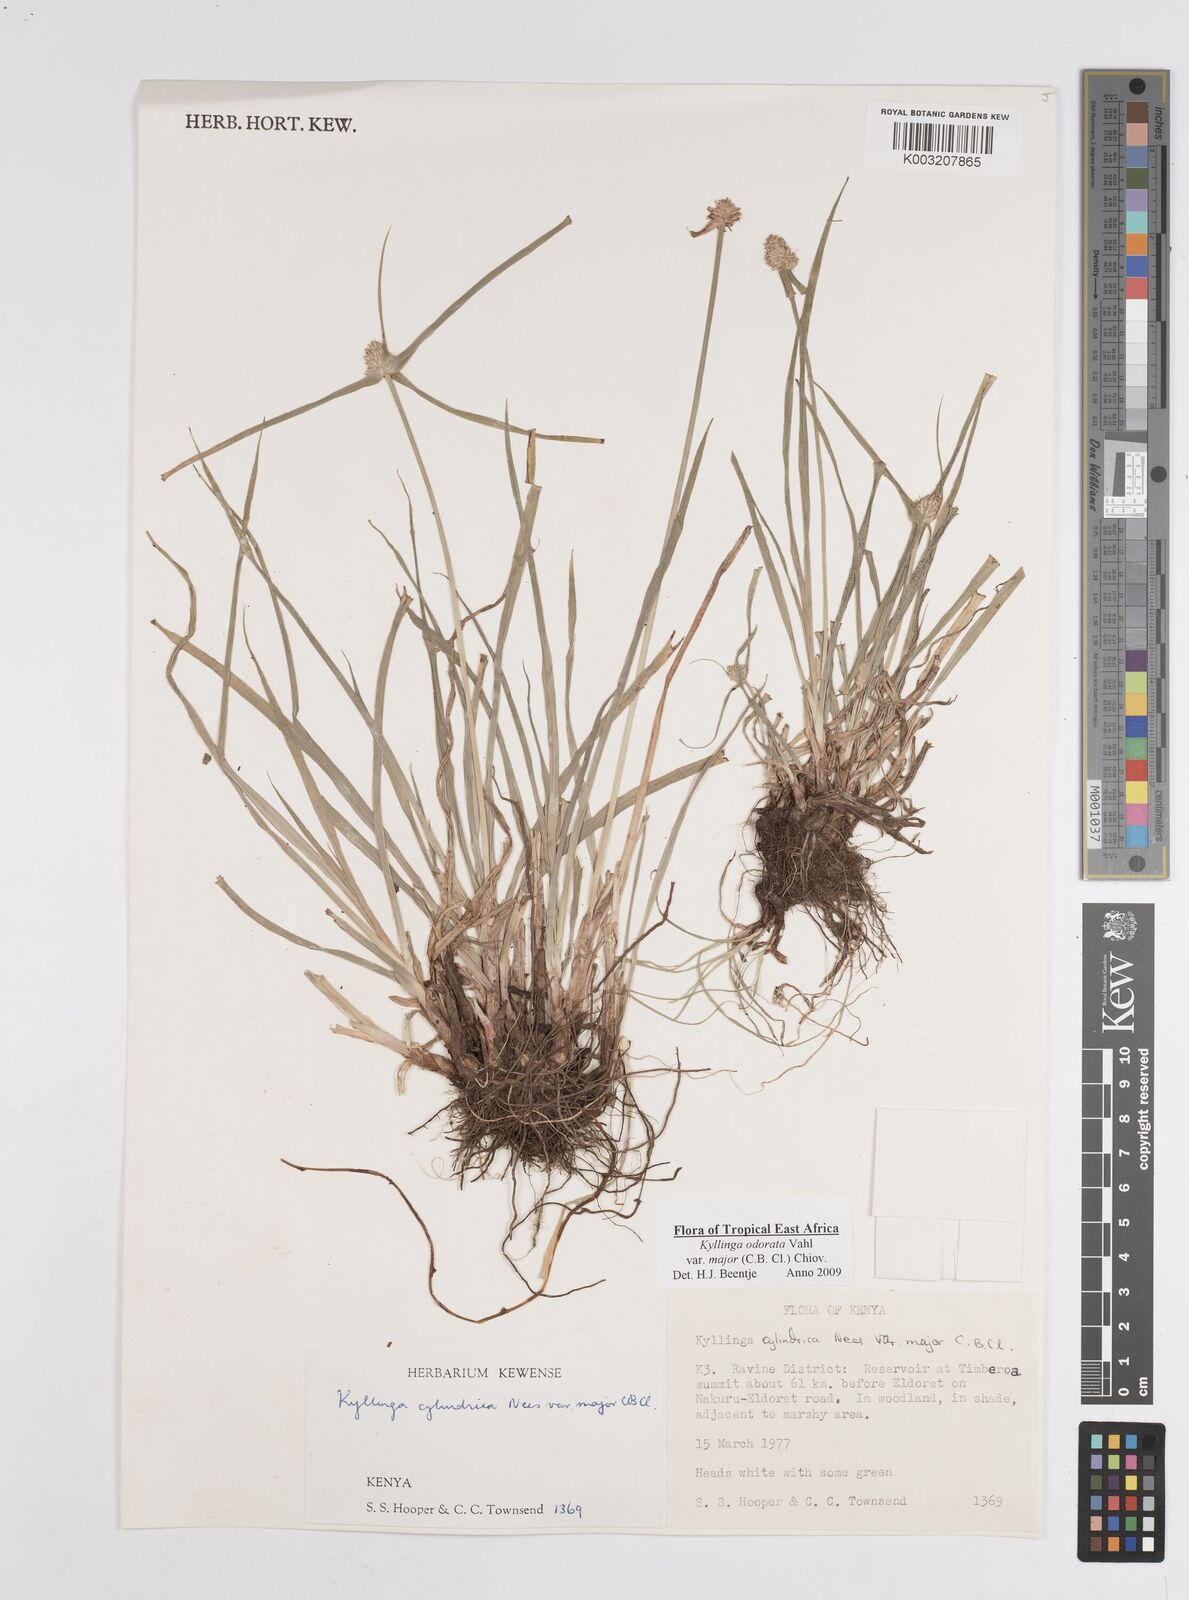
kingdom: Plantae
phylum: Tracheophyta
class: Liliopsida
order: Poales
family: Cyperaceae
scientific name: Cyperaceae
